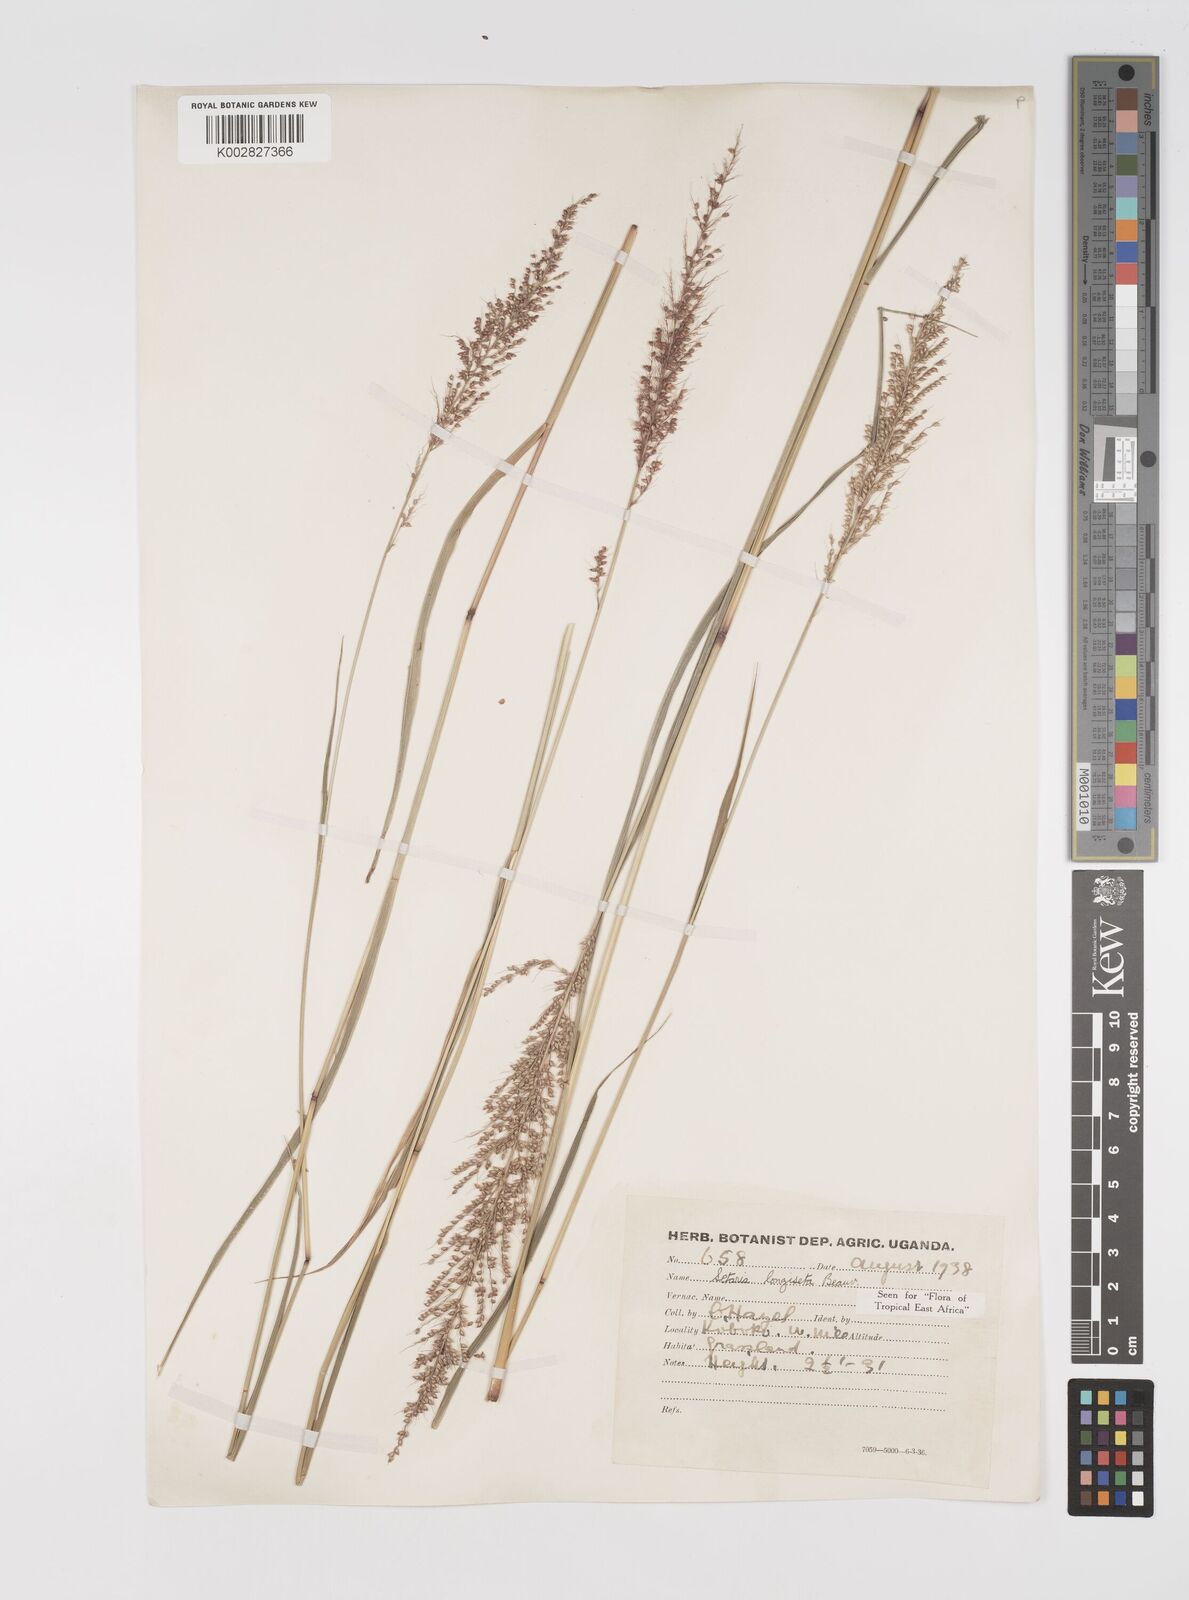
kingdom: Plantae
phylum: Tracheophyta
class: Liliopsida
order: Poales
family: Poaceae
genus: Setaria
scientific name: Setaria longiseta
